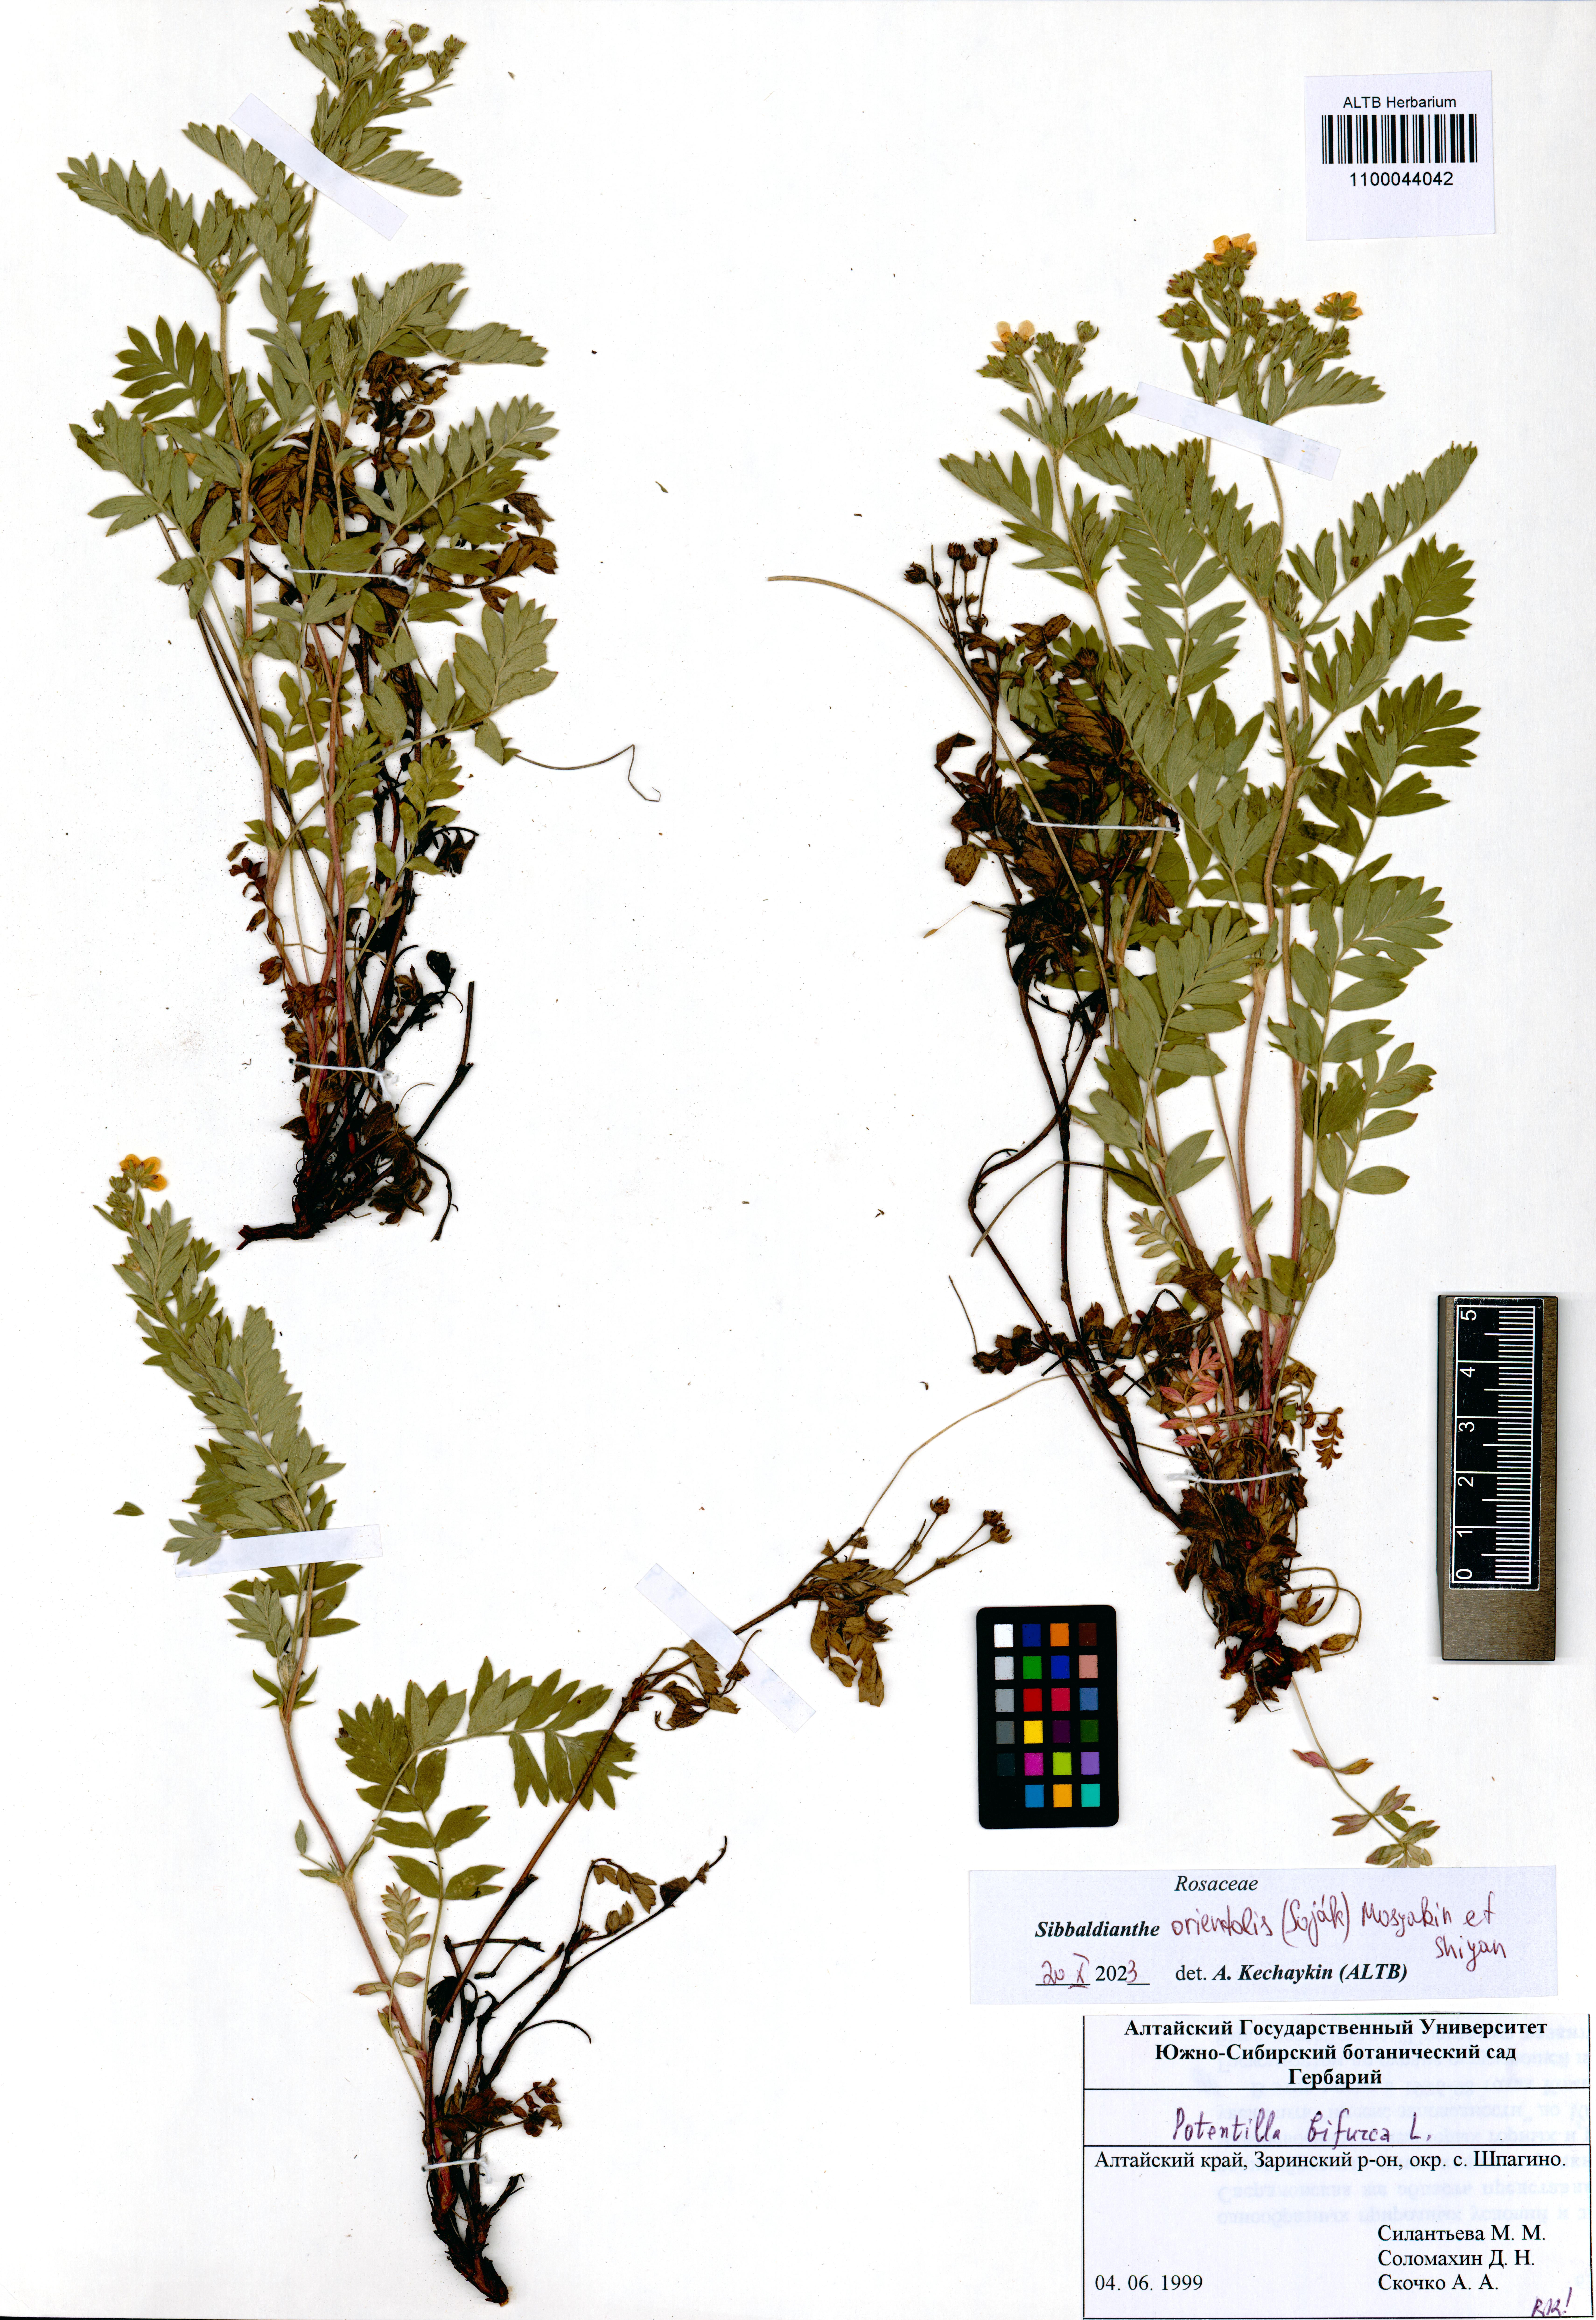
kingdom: Plantae
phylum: Tracheophyta
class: Magnoliopsida
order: Rosales
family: Rosaceae
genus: Sibbaldianthe
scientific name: Sibbaldianthe orientalis
